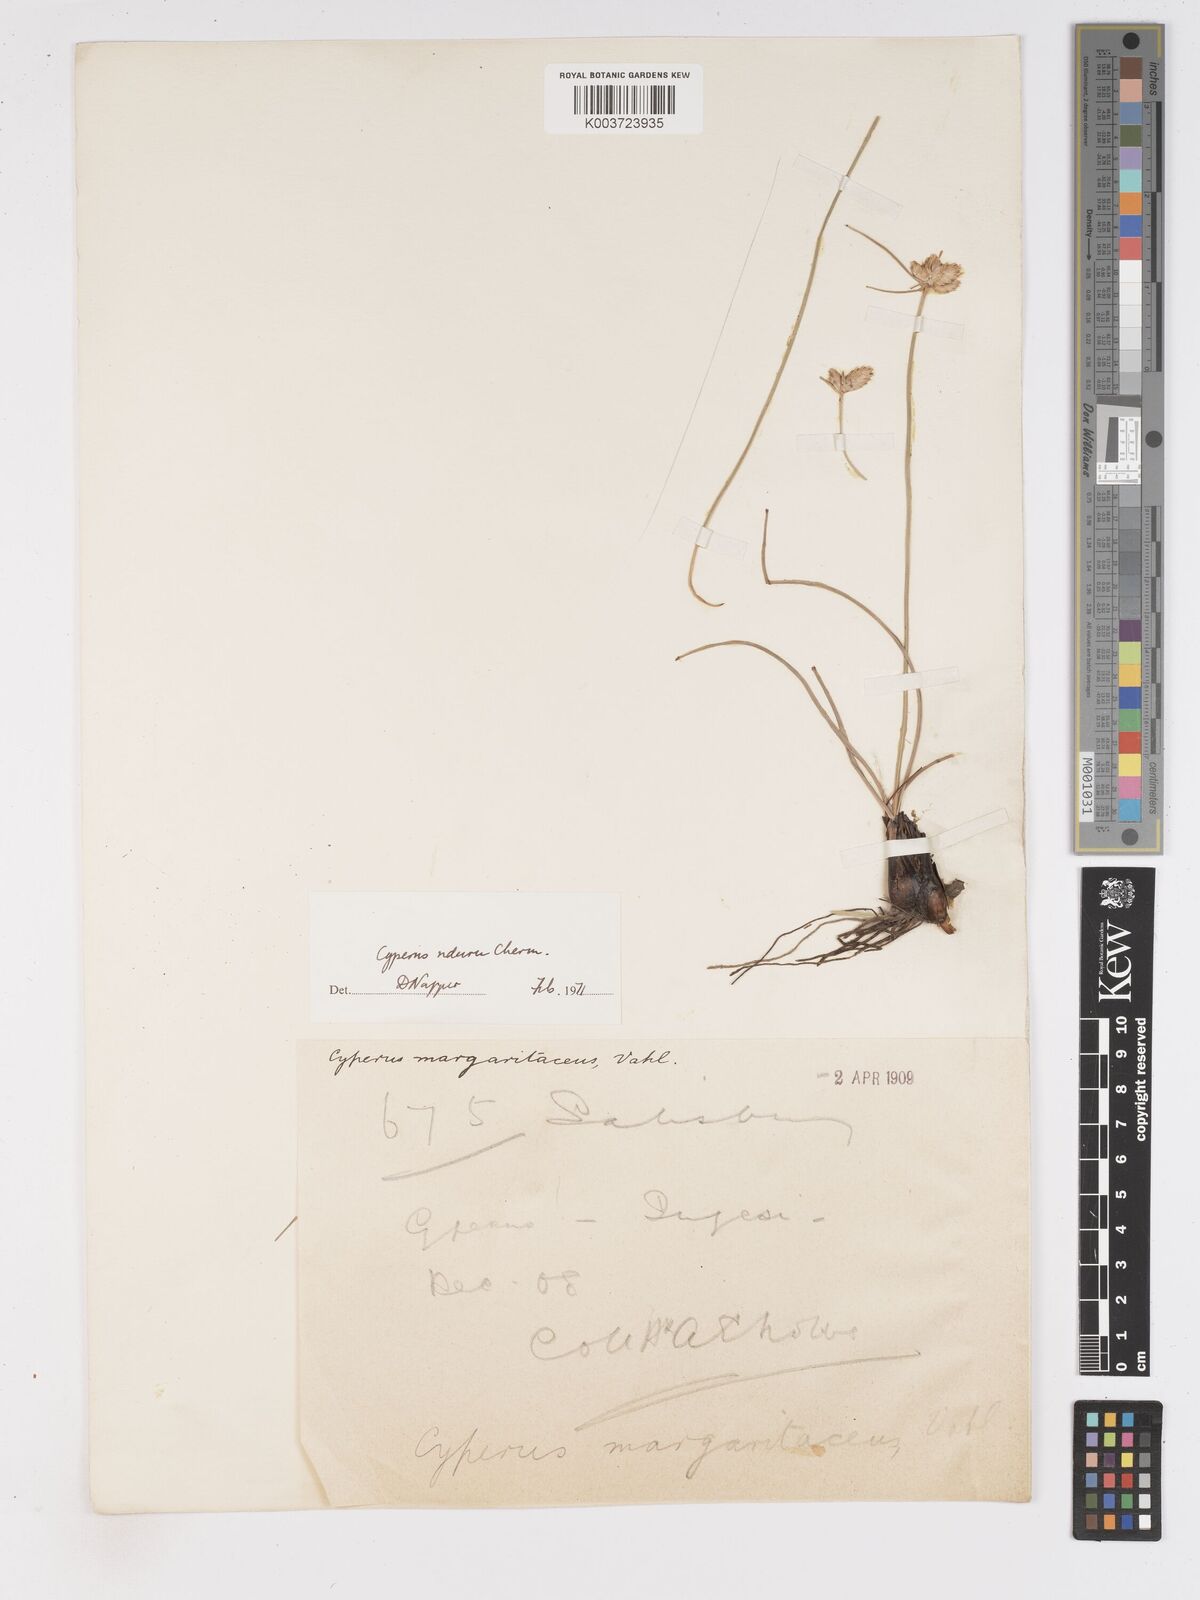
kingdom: Plantae
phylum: Tracheophyta
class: Liliopsida
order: Poales
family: Cyperaceae
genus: Cyperus
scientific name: Cyperus nduru
